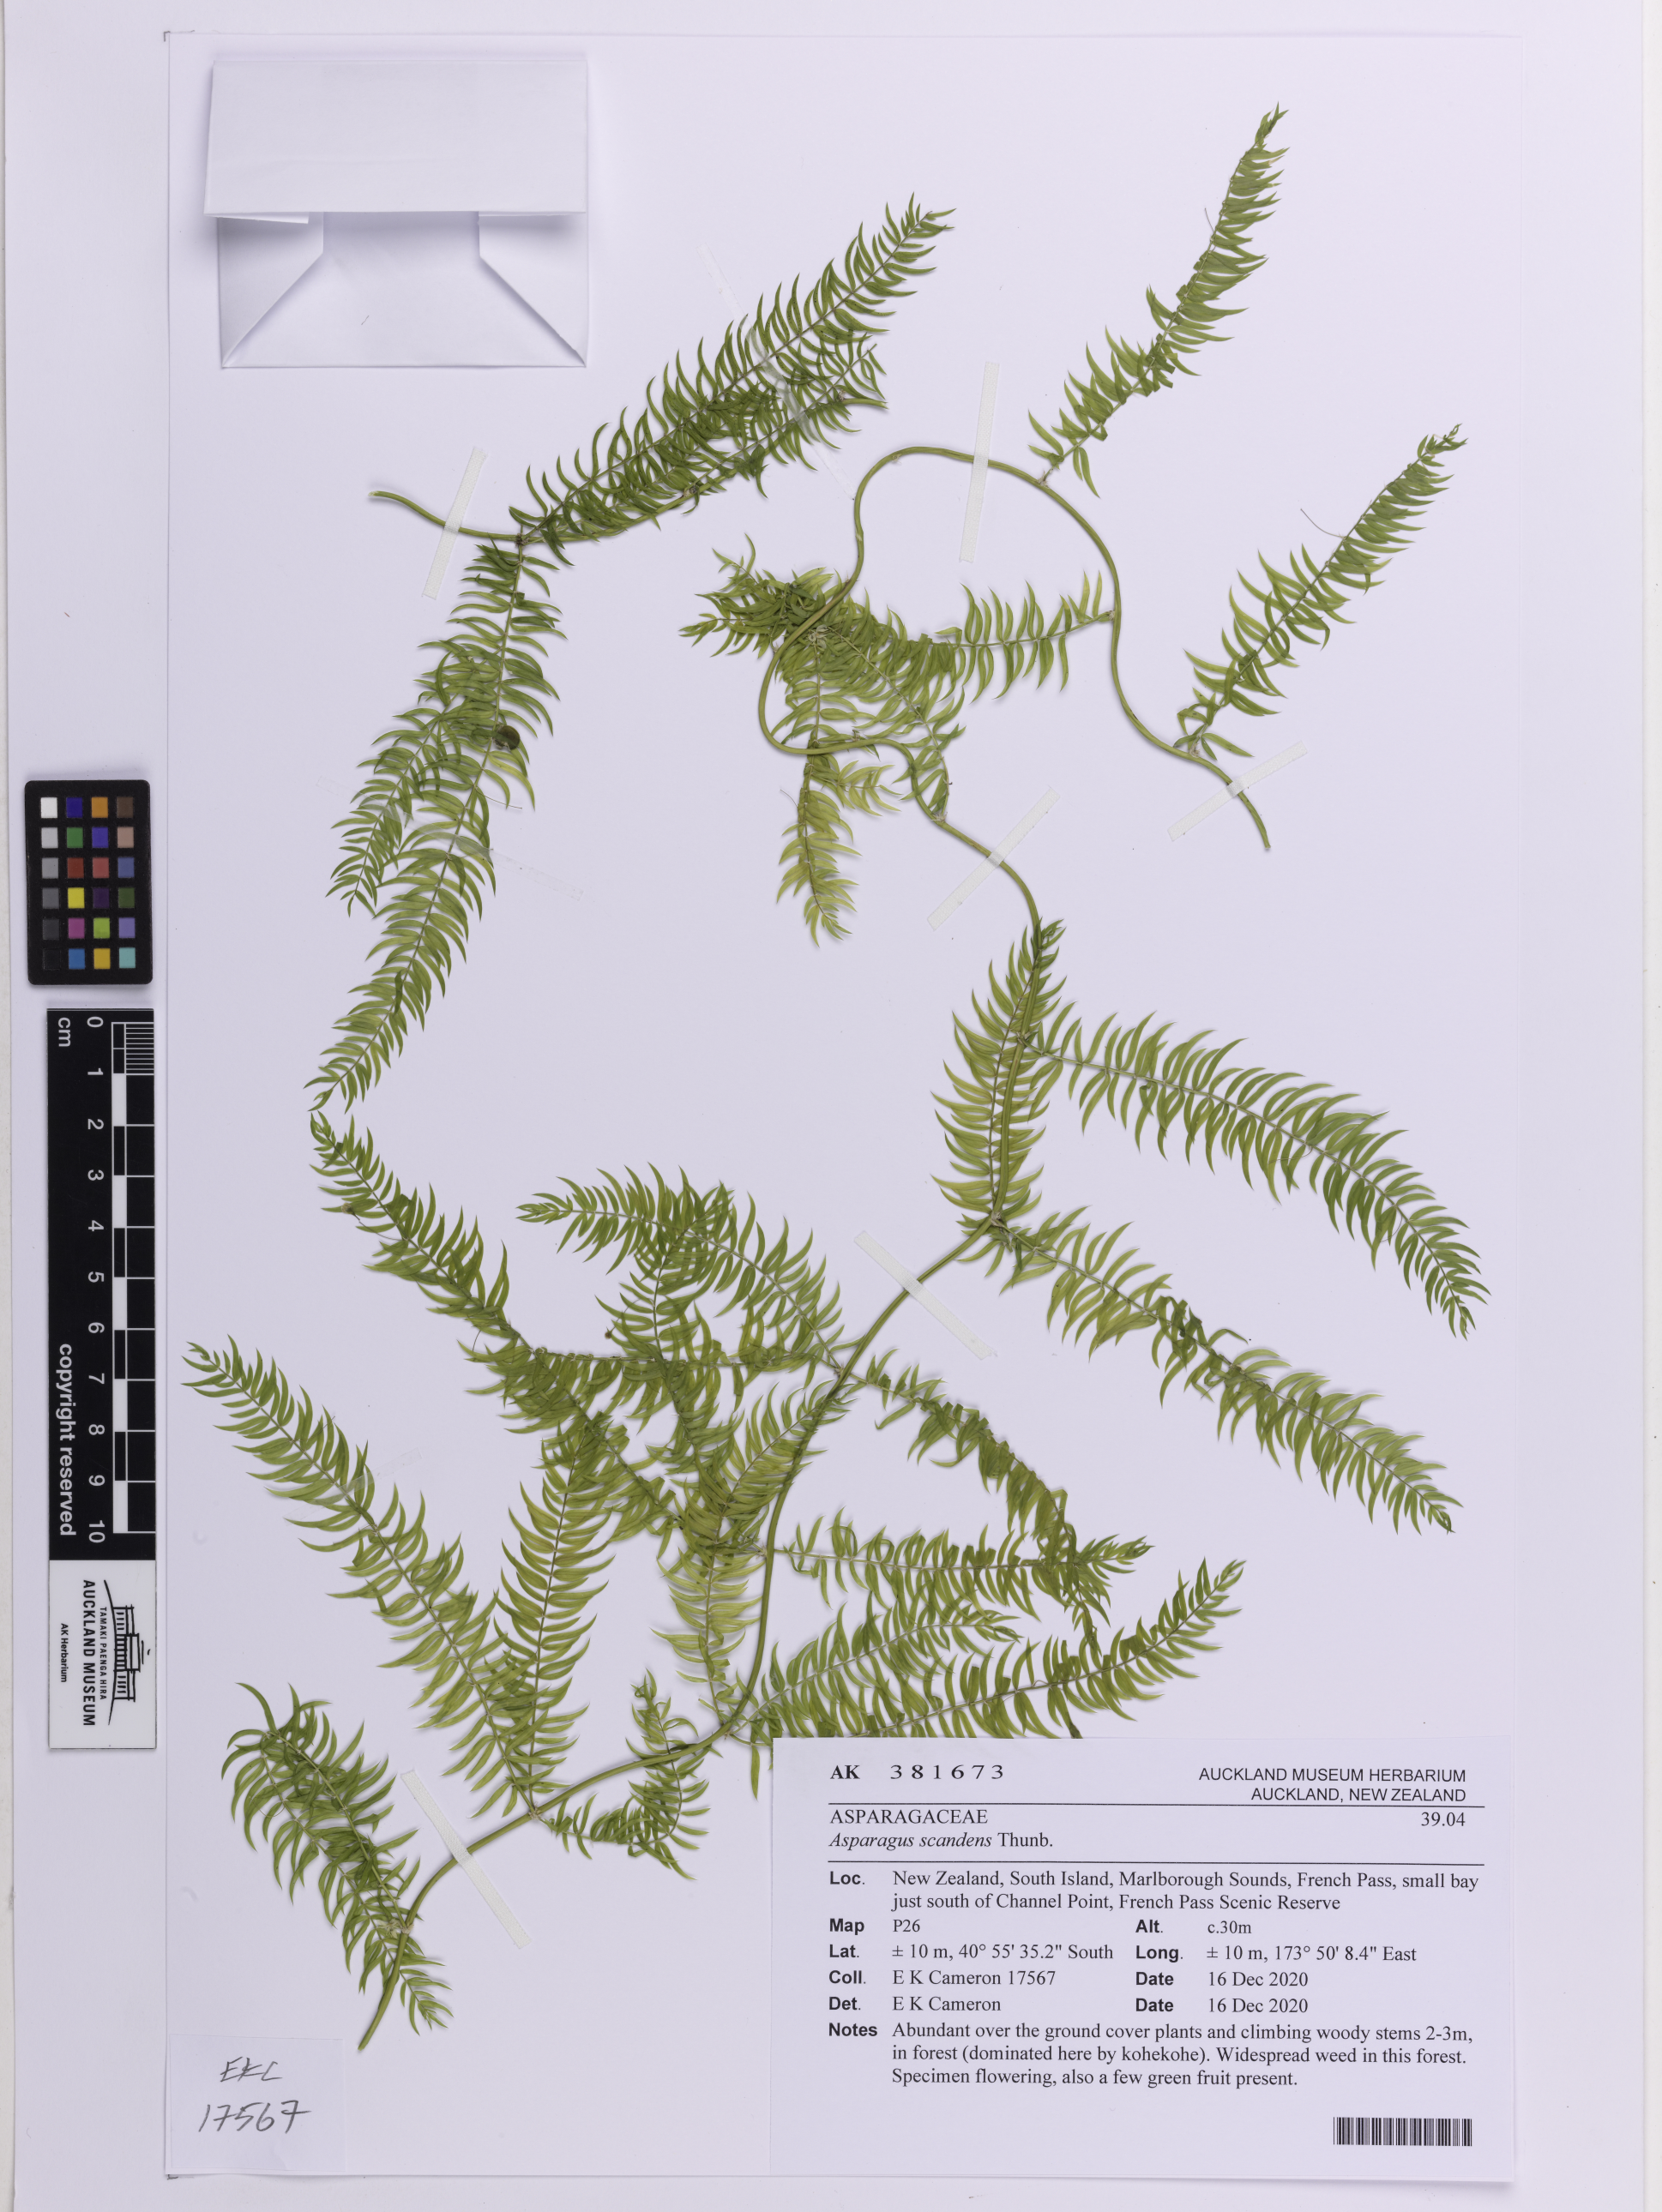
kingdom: Plantae
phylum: Tracheophyta
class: Liliopsida
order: Asparagales
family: Asparagaceae
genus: Asparagus
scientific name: Asparagus scandens
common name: Asparagus-fern
